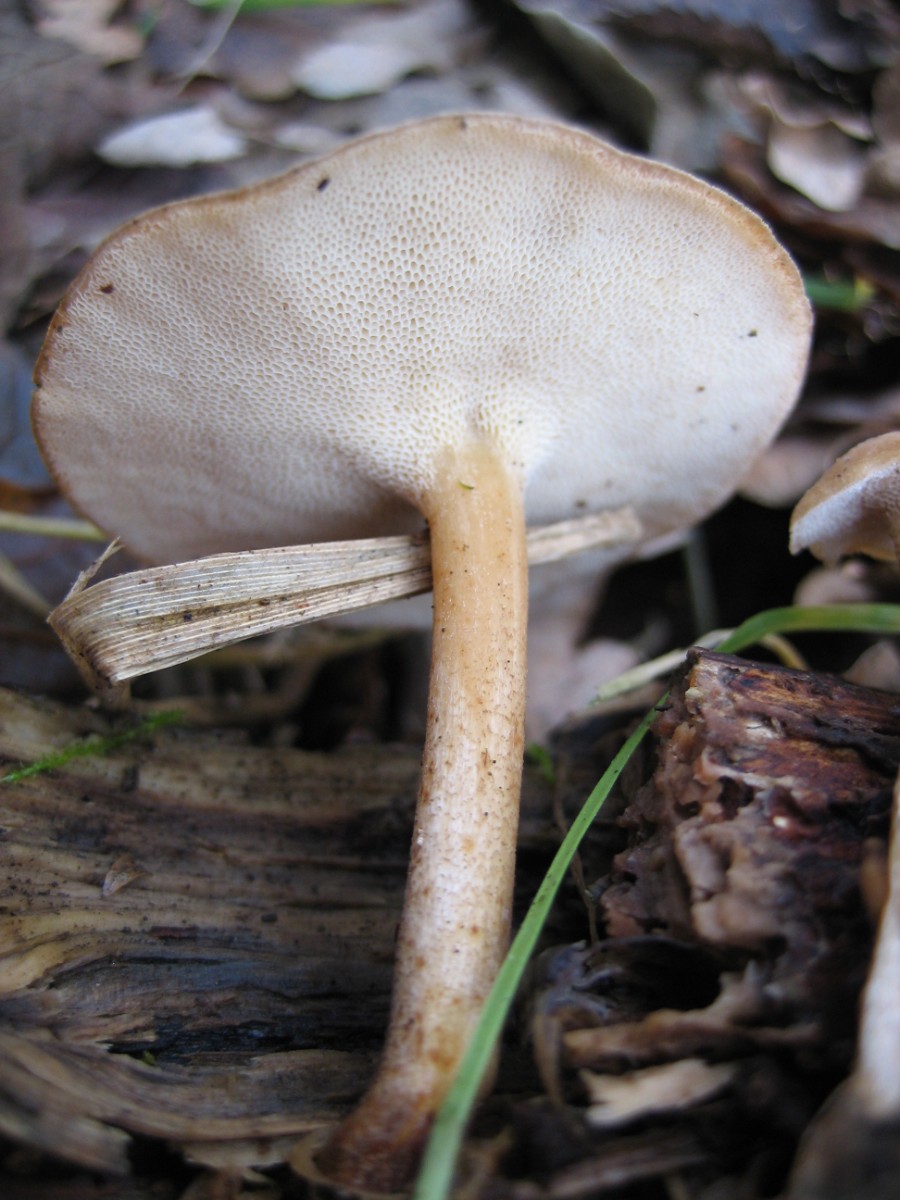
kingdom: Fungi
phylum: Basidiomycota
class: Agaricomycetes
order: Polyporales
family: Polyporaceae
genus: Lentinus
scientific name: Lentinus brumalis
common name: vinter-stilkporesvamp
